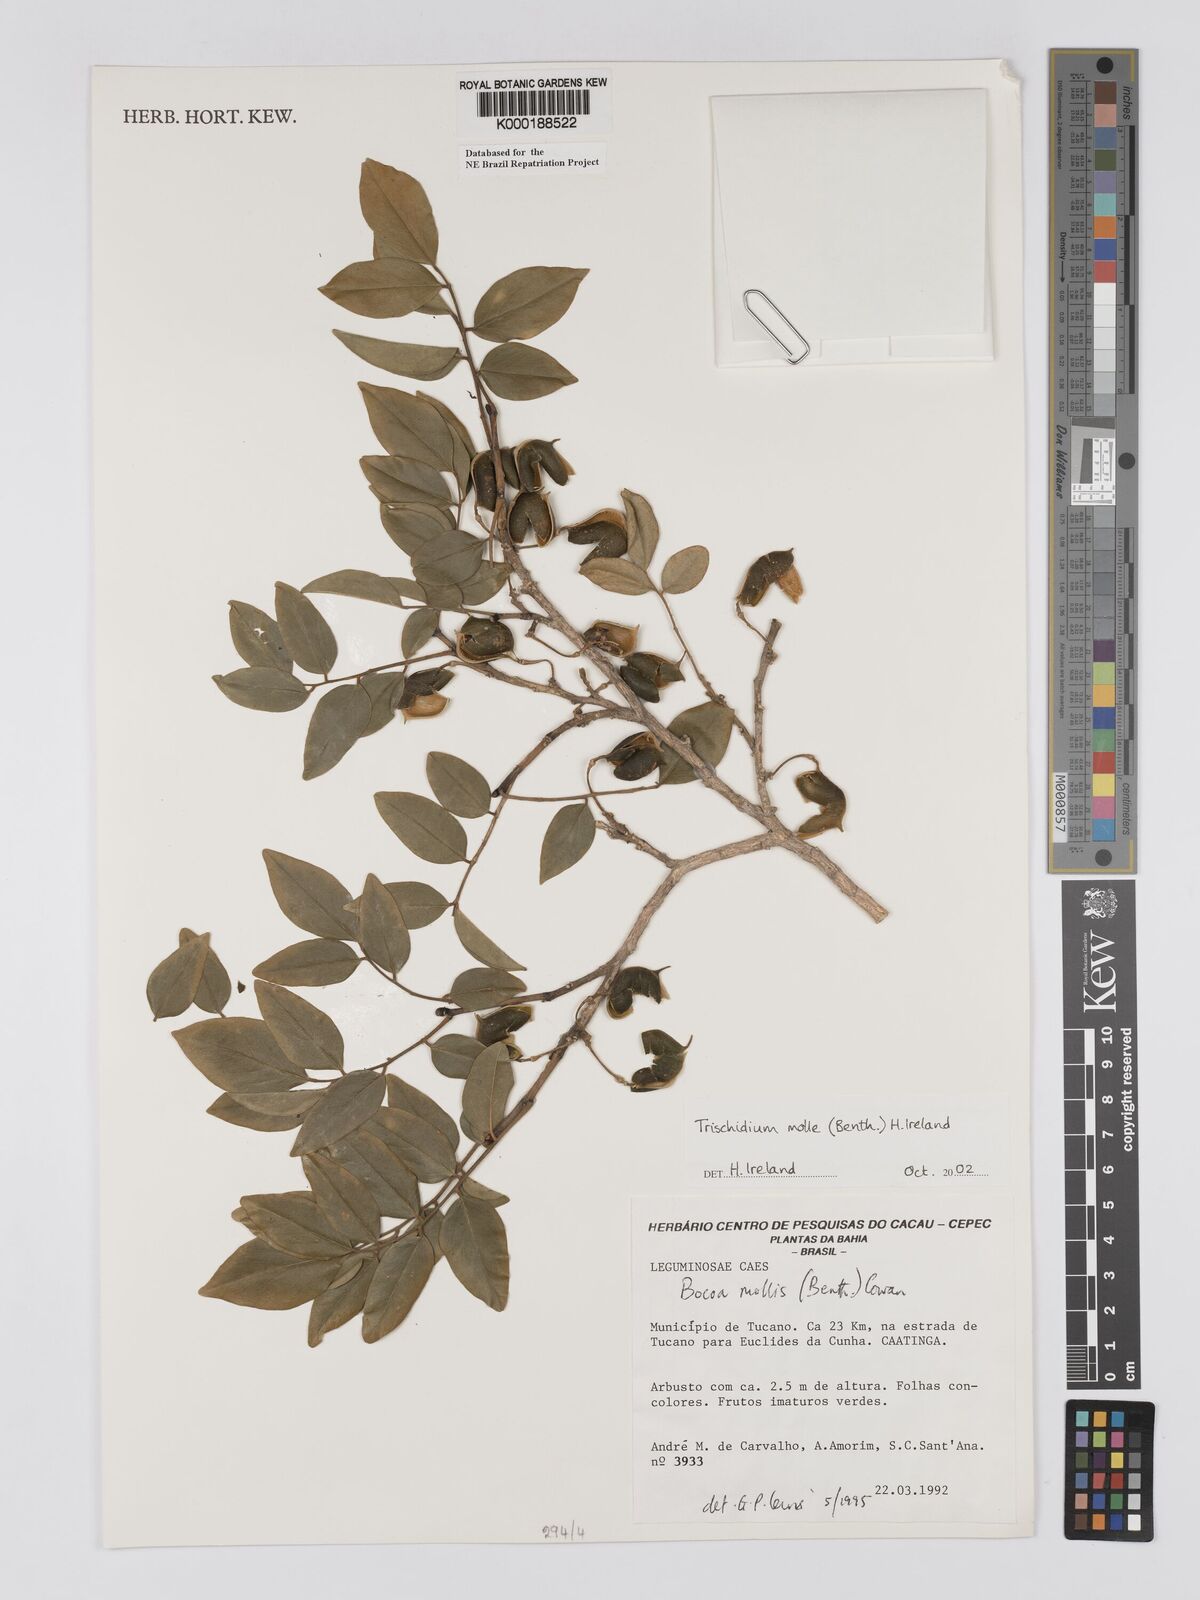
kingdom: Plantae
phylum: Tracheophyta
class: Magnoliopsida
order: Fabales
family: Fabaceae
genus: Trischidium
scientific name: Trischidium
